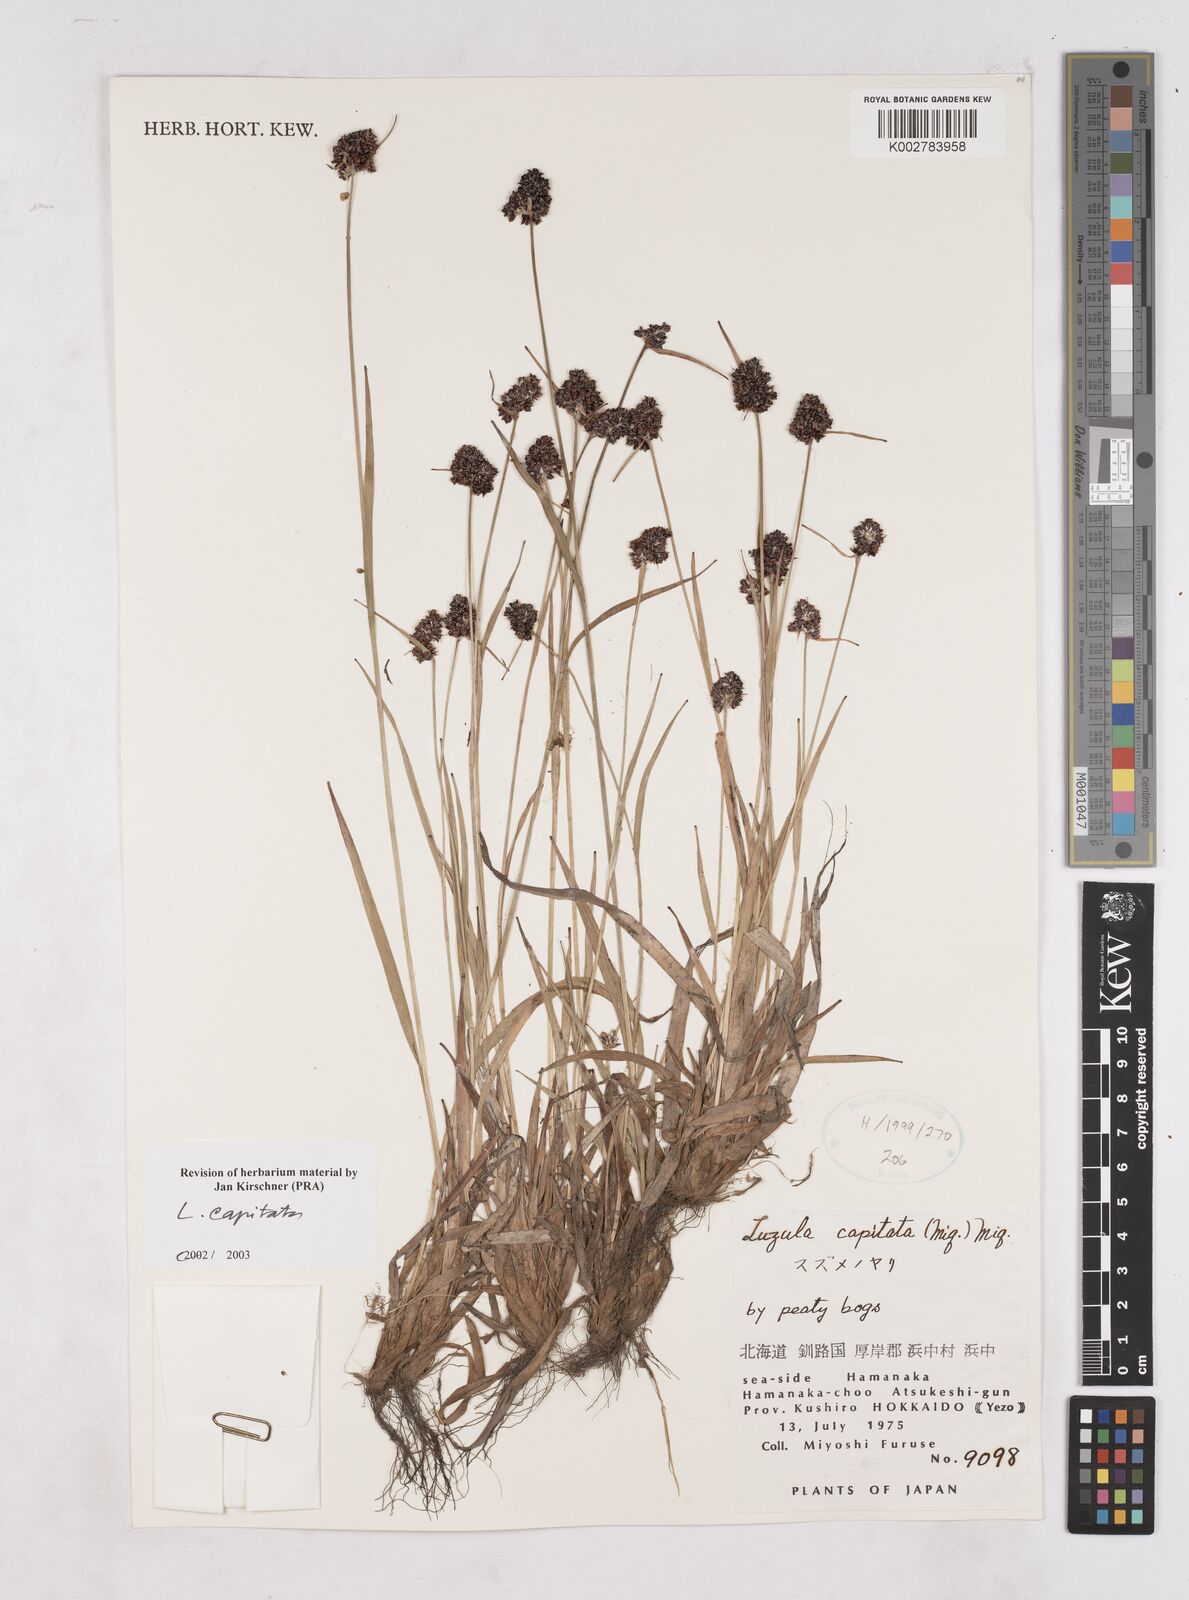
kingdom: Plantae
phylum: Tracheophyta
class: Liliopsida
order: Poales
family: Juncaceae
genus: Luzula
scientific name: Luzula capitata
